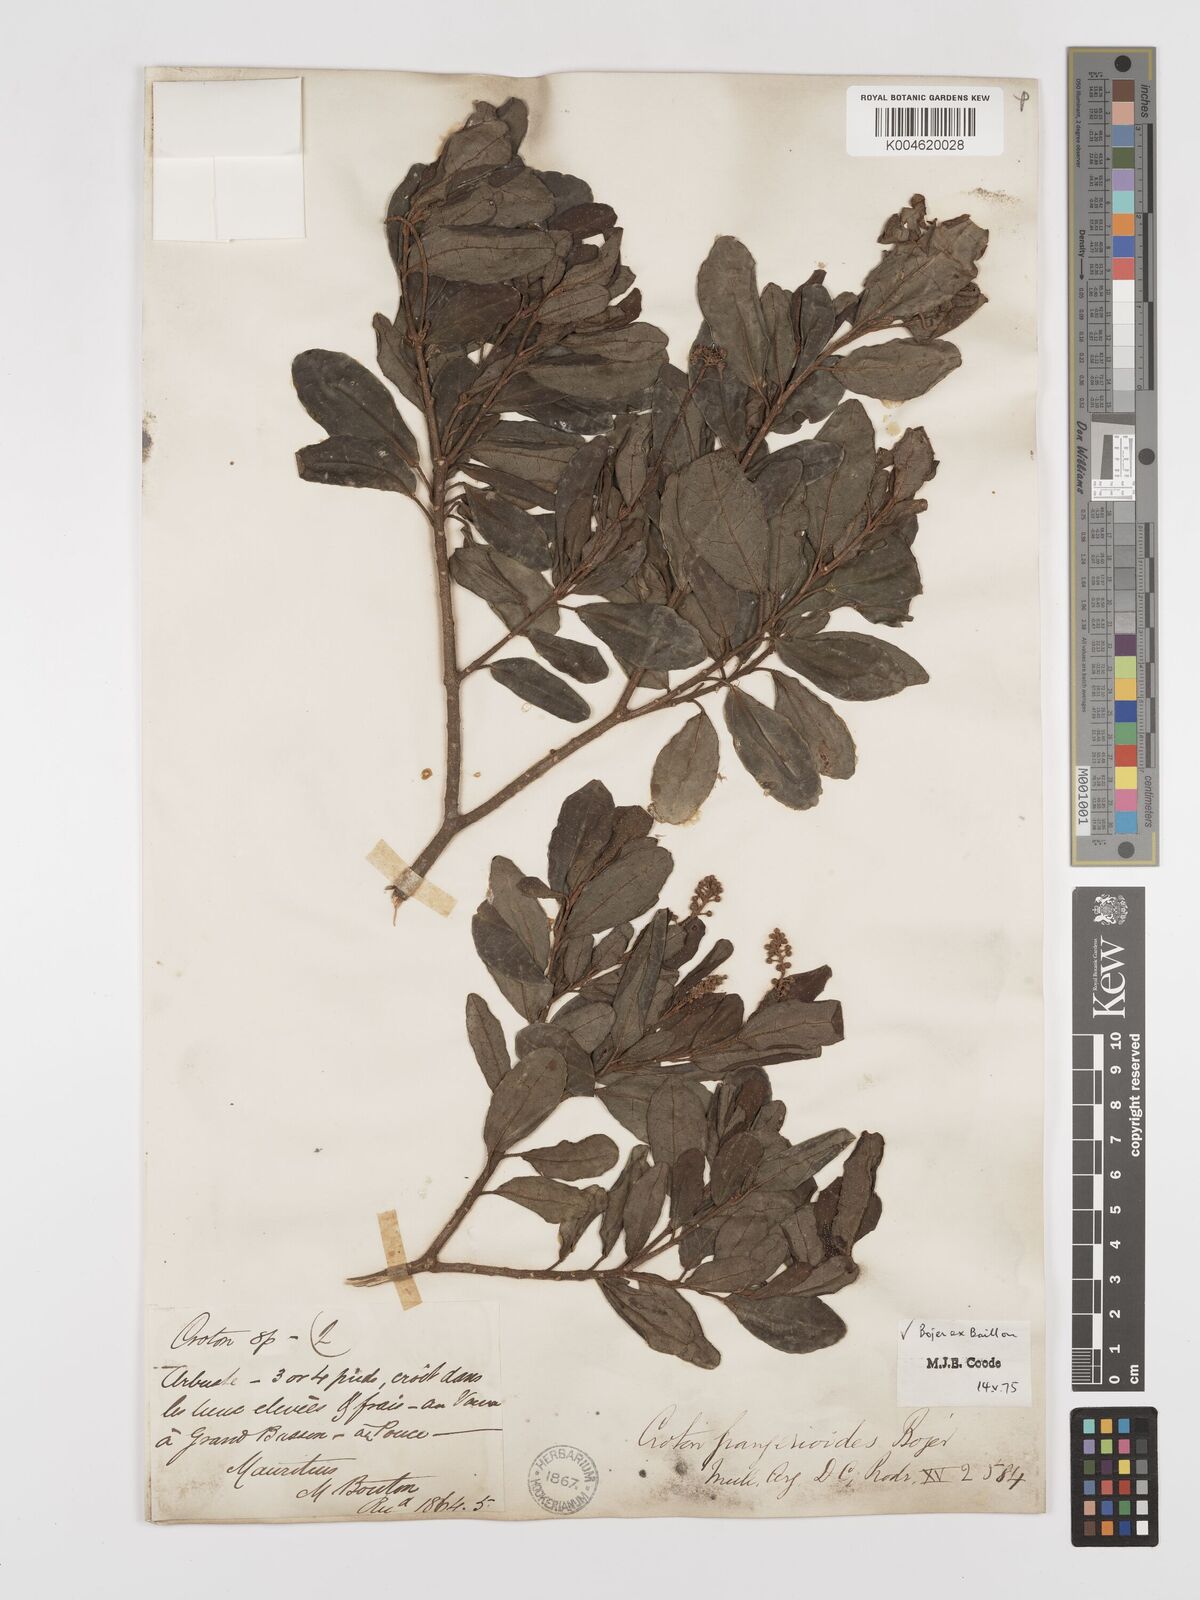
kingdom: Plantae
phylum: Tracheophyta
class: Magnoliopsida
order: Malpighiales
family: Euphorbiaceae
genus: Croton
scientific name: Croton grangerioides
